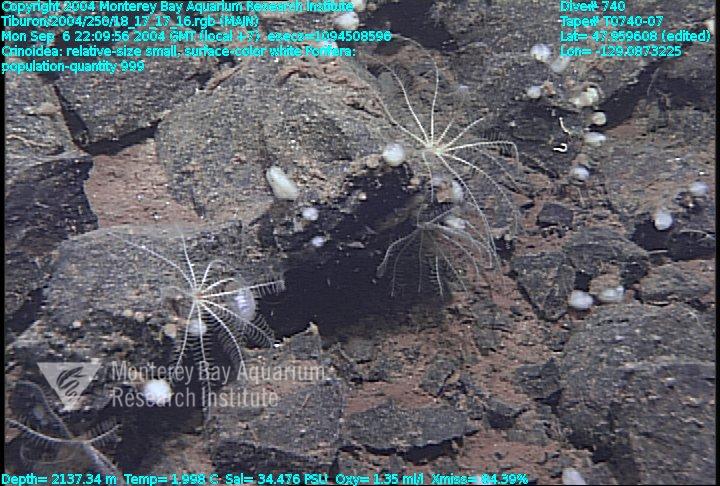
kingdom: Animalia
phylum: Porifera
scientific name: Porifera
